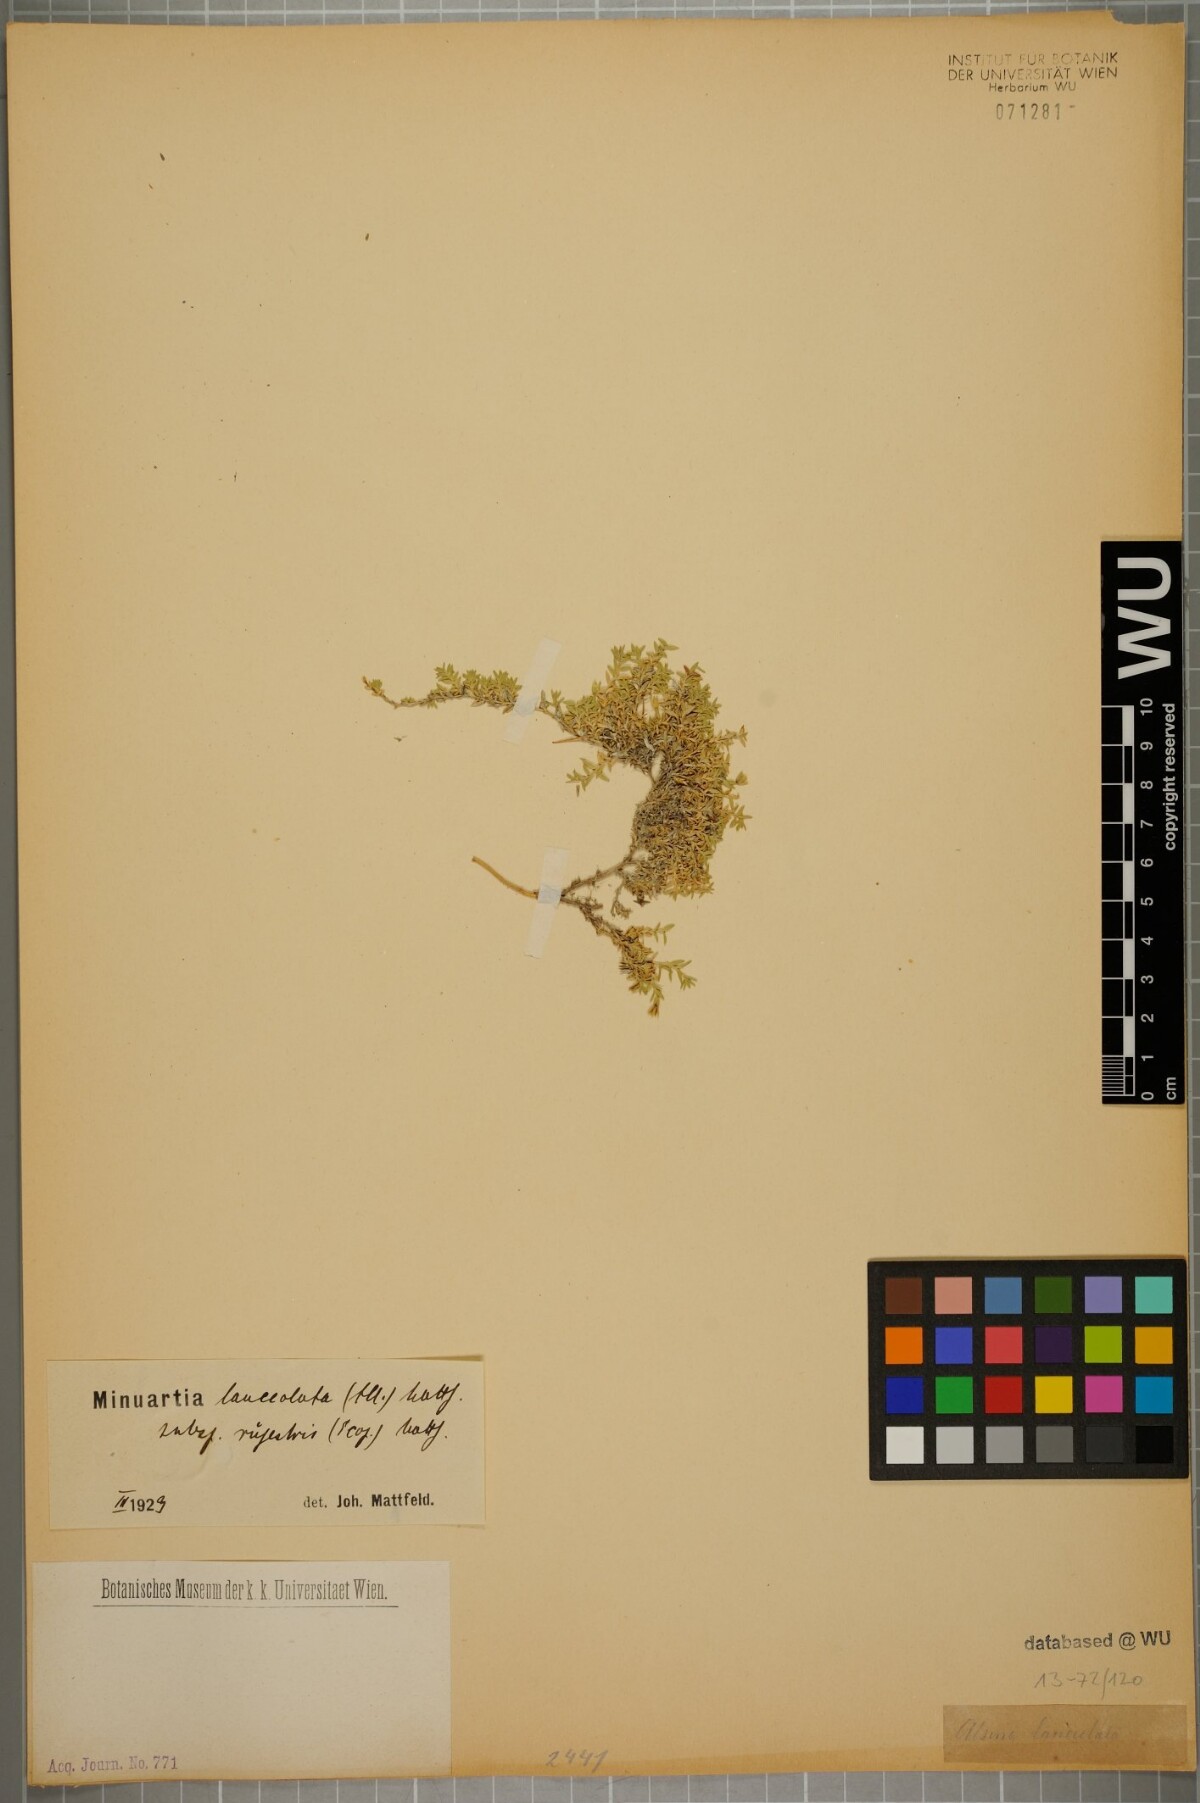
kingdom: Plantae
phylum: Tracheophyta
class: Magnoliopsida
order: Caryophyllales
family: Caryophyllaceae
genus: Facchinia
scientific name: Facchinia rupestris
